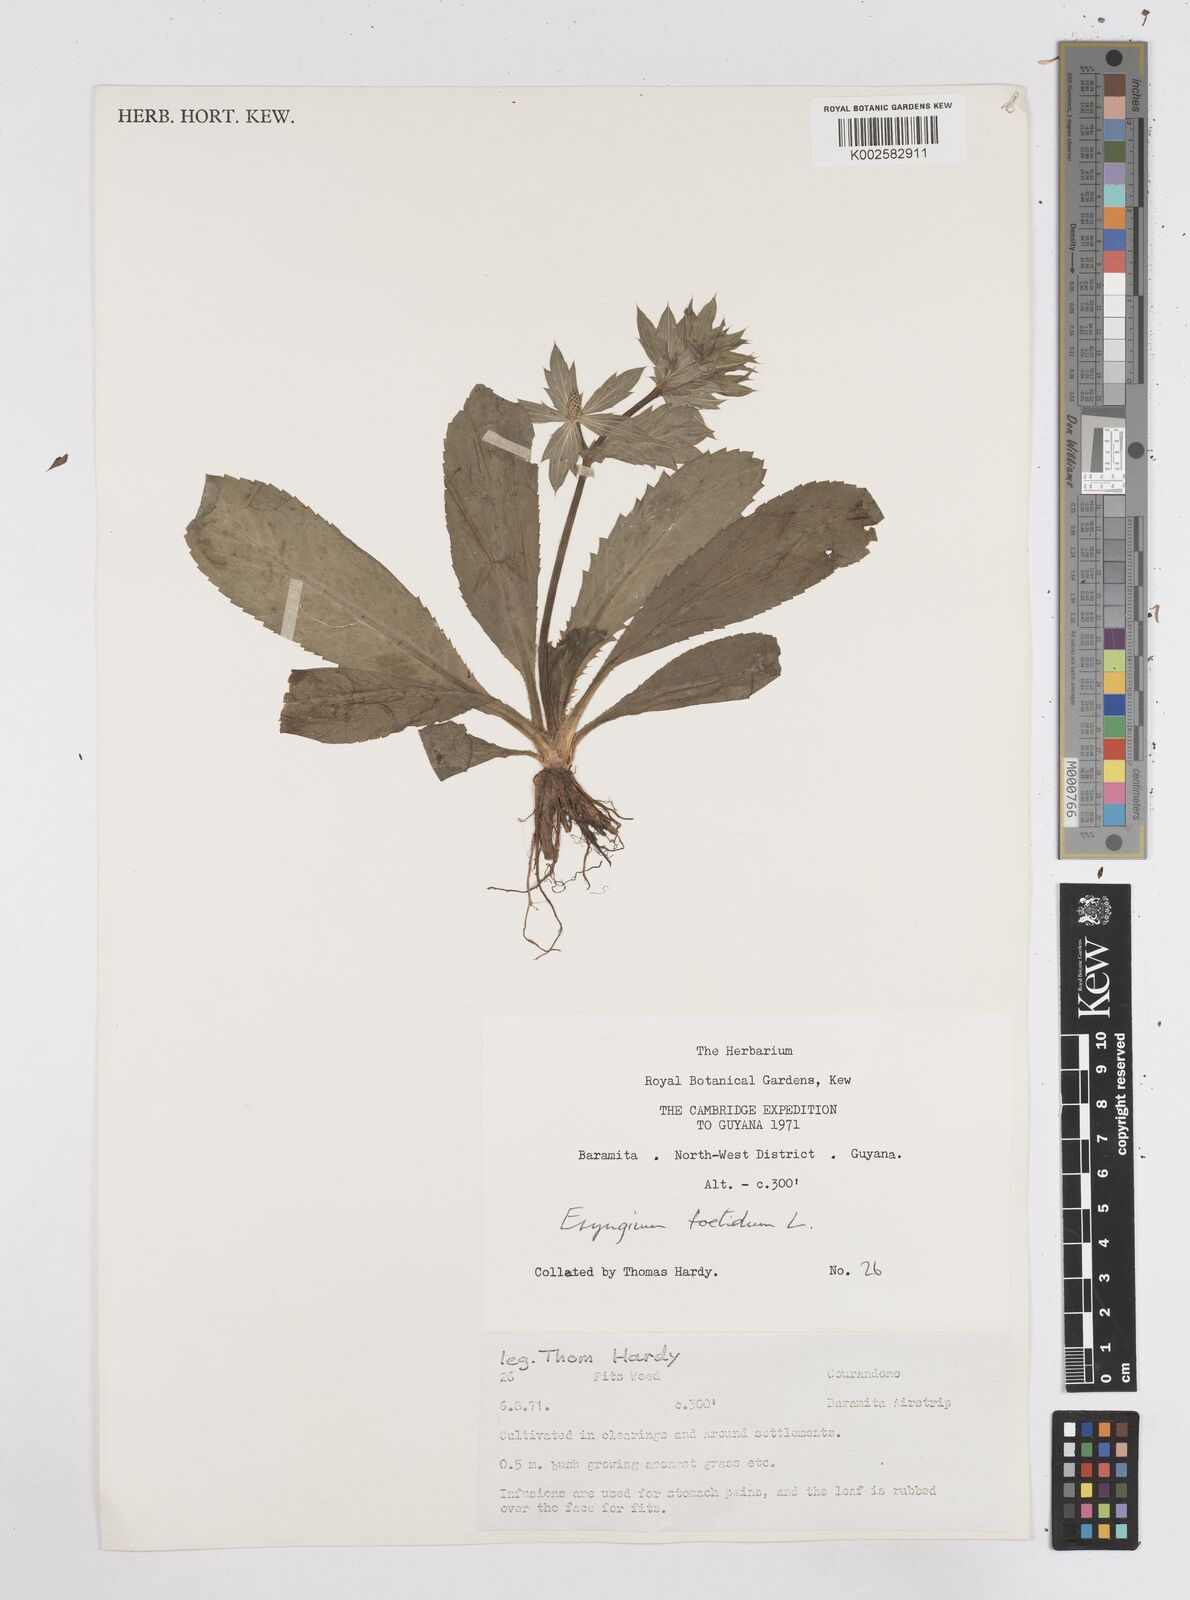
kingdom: Plantae
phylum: Tracheophyta
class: Magnoliopsida
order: Apiales
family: Apiaceae
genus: Eryngium
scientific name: Eryngium foetidum
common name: Fitweed
